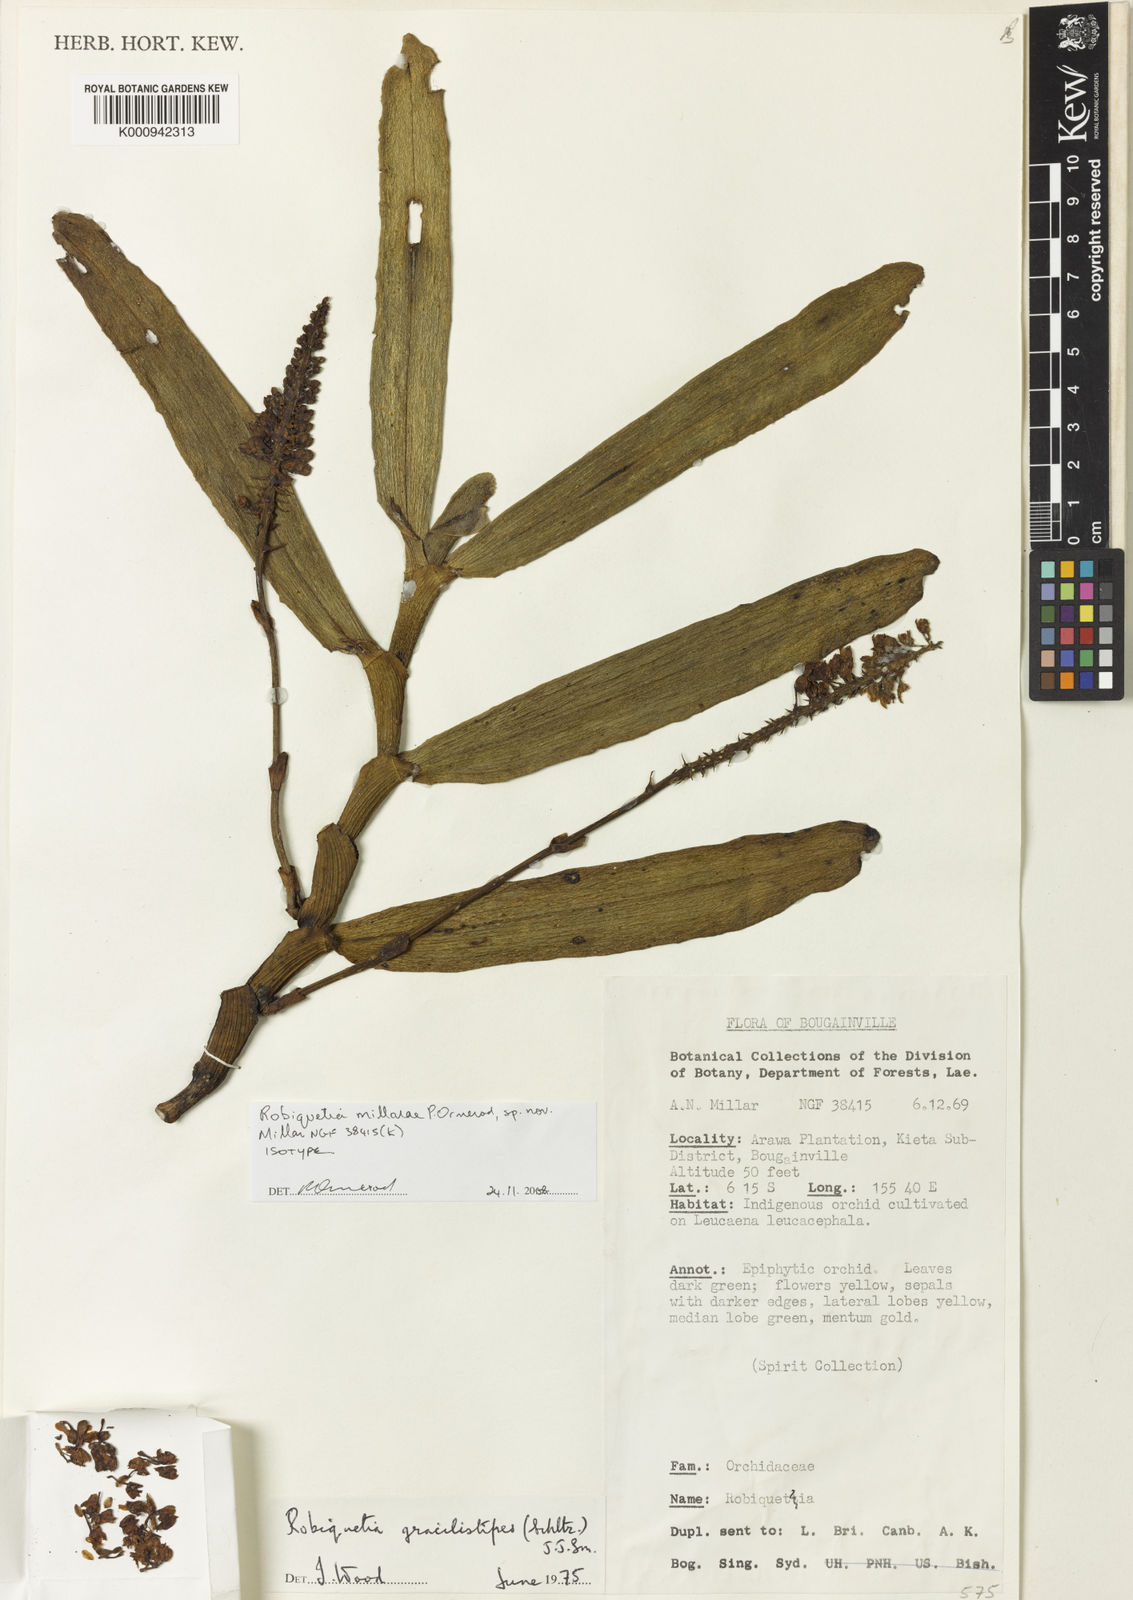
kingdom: Plantae
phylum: Tracheophyta
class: Liliopsida
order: Asparagales
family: Orchidaceae
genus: Robiquetia
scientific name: Robiquetia millariae
